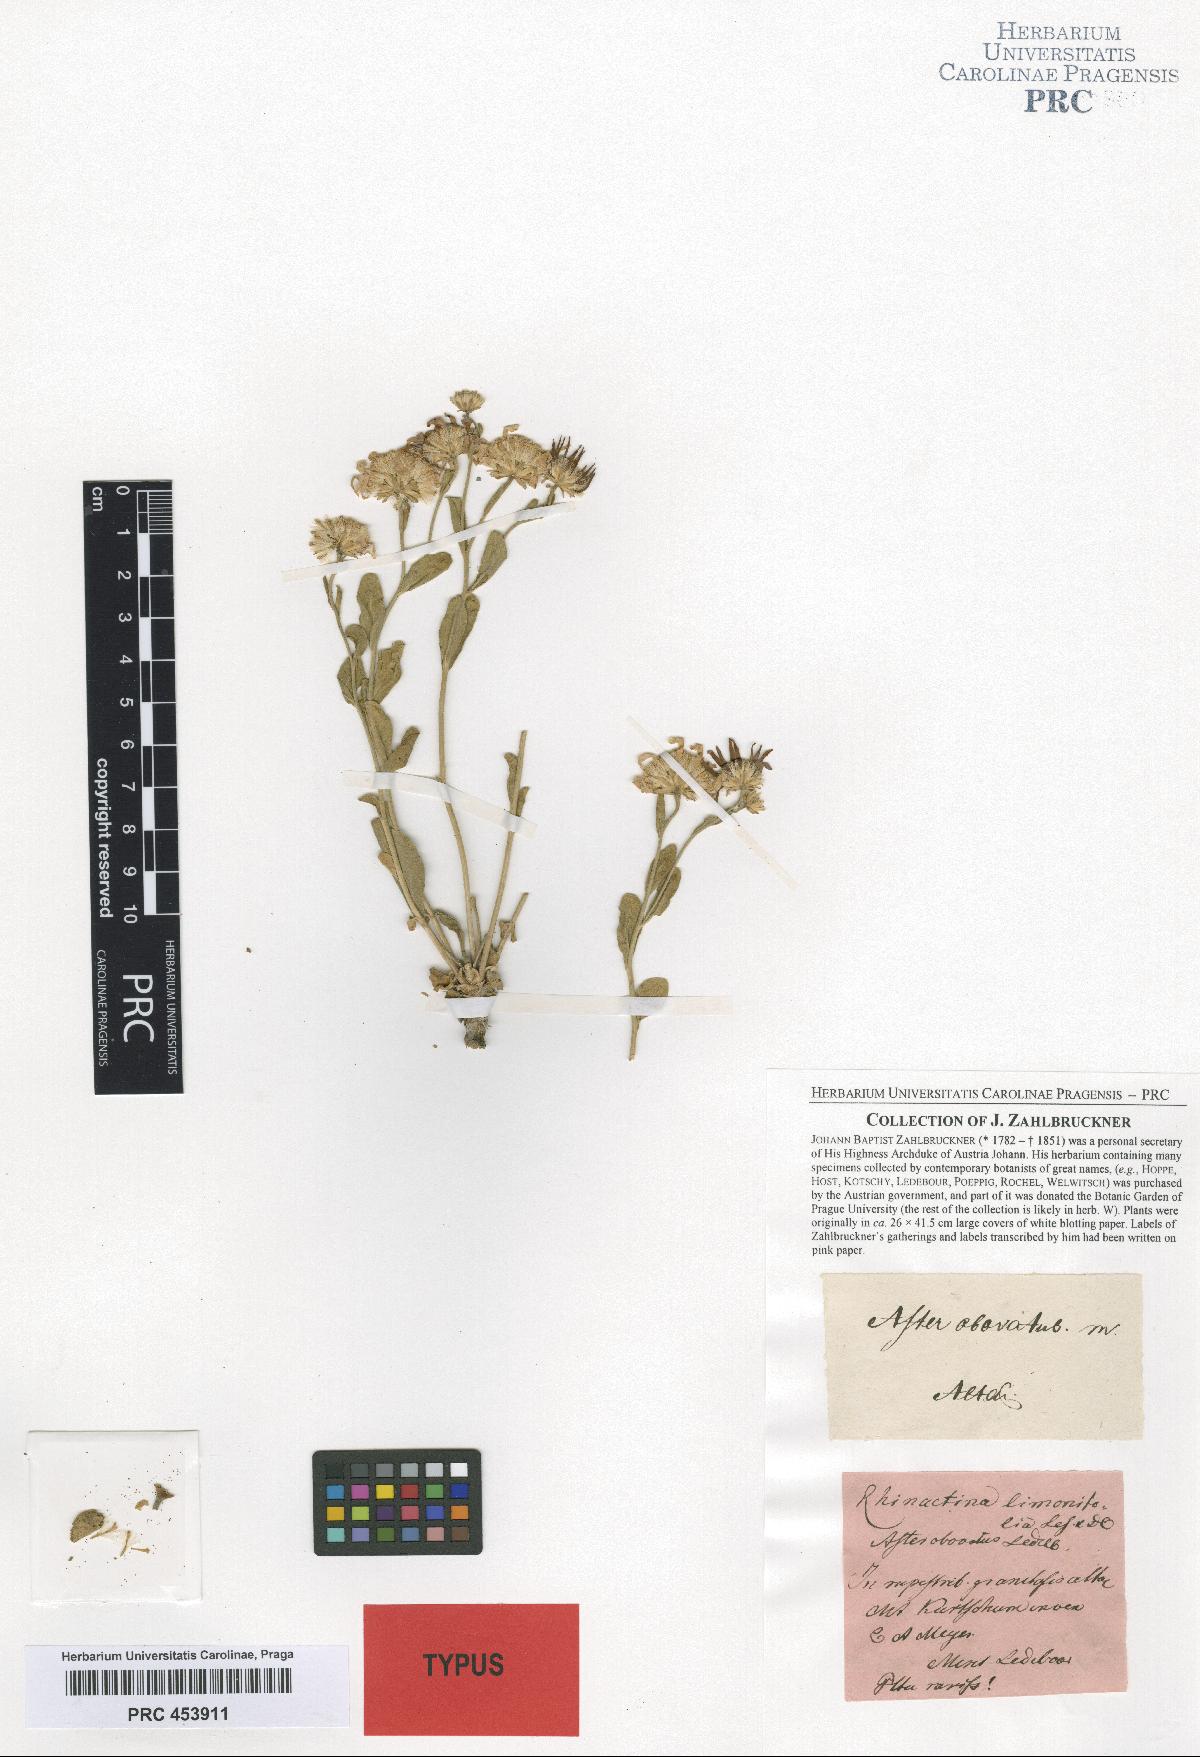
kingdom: Plantae
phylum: Tracheophyta
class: Magnoliopsida
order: Asterales
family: Asteraceae
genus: Rhinactinidia
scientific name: Rhinactinidia limoniifolia
